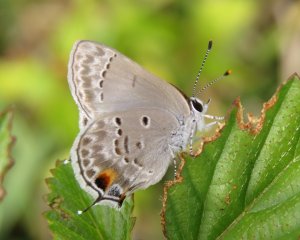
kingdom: Animalia
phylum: Arthropoda
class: Insecta
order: Lepidoptera
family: Lycaenidae
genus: Callicista
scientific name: Callicista columella
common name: Mallow Scrub-Hairstreak
